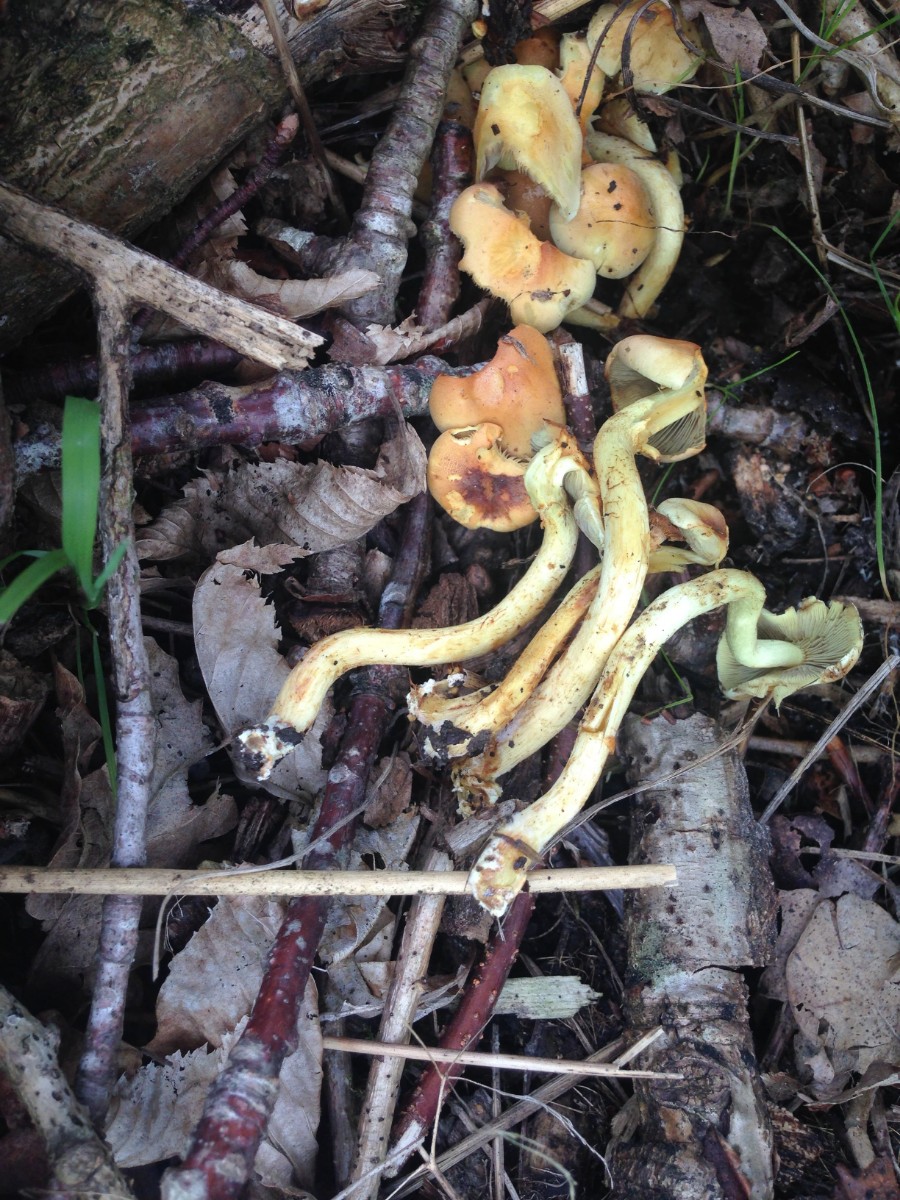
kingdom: Fungi
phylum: Basidiomycota
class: Agaricomycetes
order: Agaricales
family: Strophariaceae
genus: Hypholoma
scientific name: Hypholoma fasciculare
